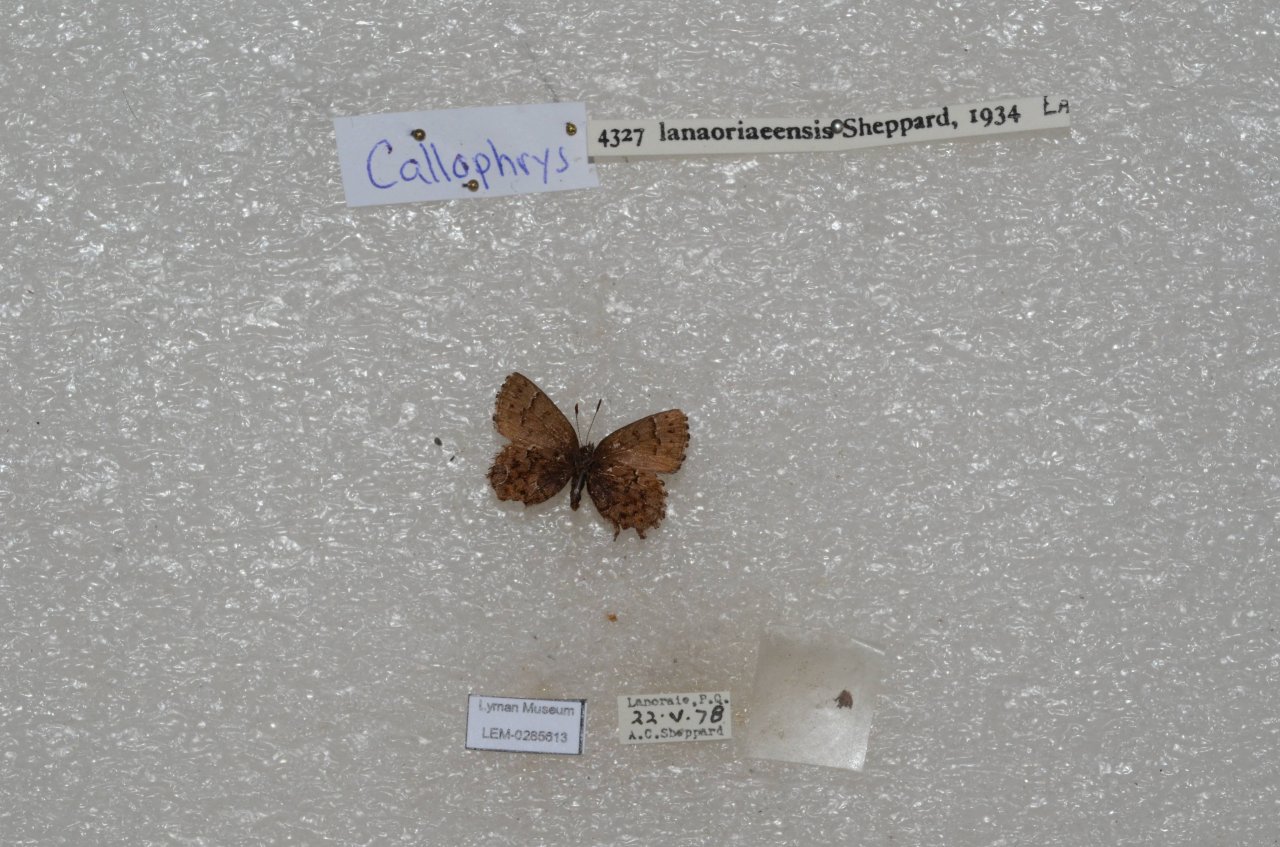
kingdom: Animalia
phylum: Arthropoda
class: Insecta
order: Lepidoptera
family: Lycaenidae
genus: Incisalia
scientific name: Incisalia lanoraieensis
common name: Bog Elfin
